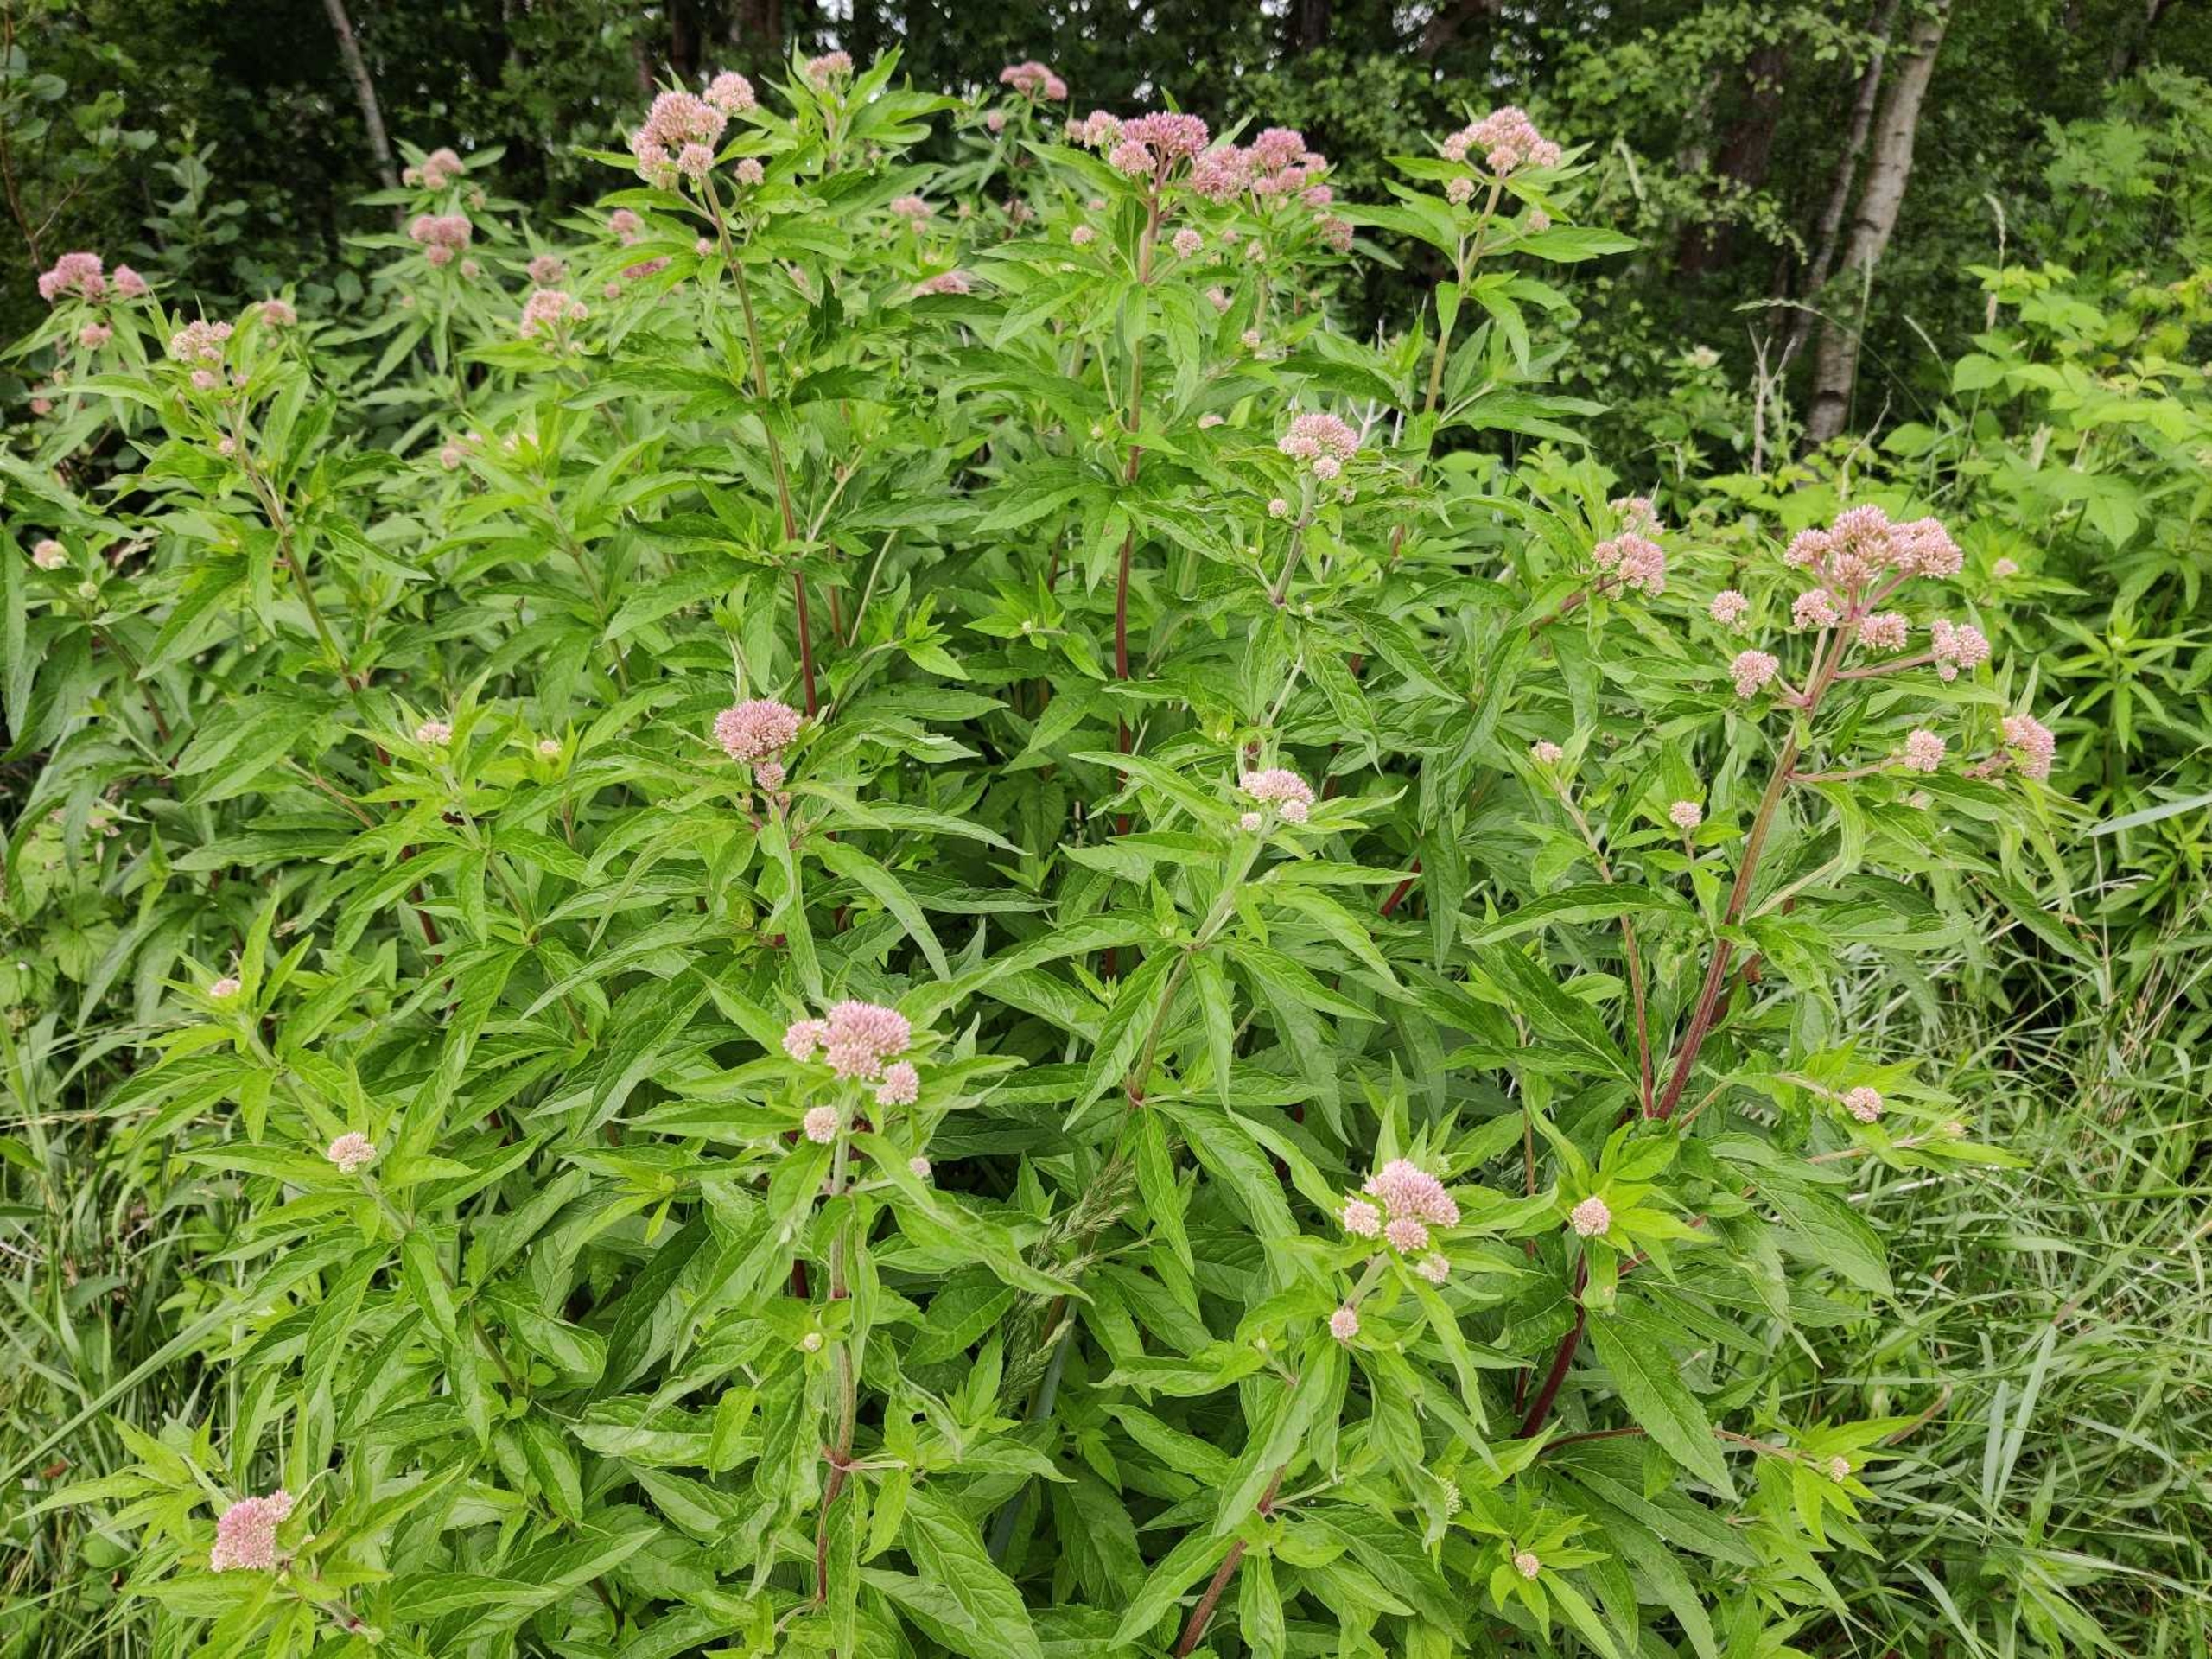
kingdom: Plantae
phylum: Tracheophyta
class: Magnoliopsida
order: Asterales
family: Asteraceae
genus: Eupatorium
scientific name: Eupatorium cannabinum
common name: Hjortetrøst
